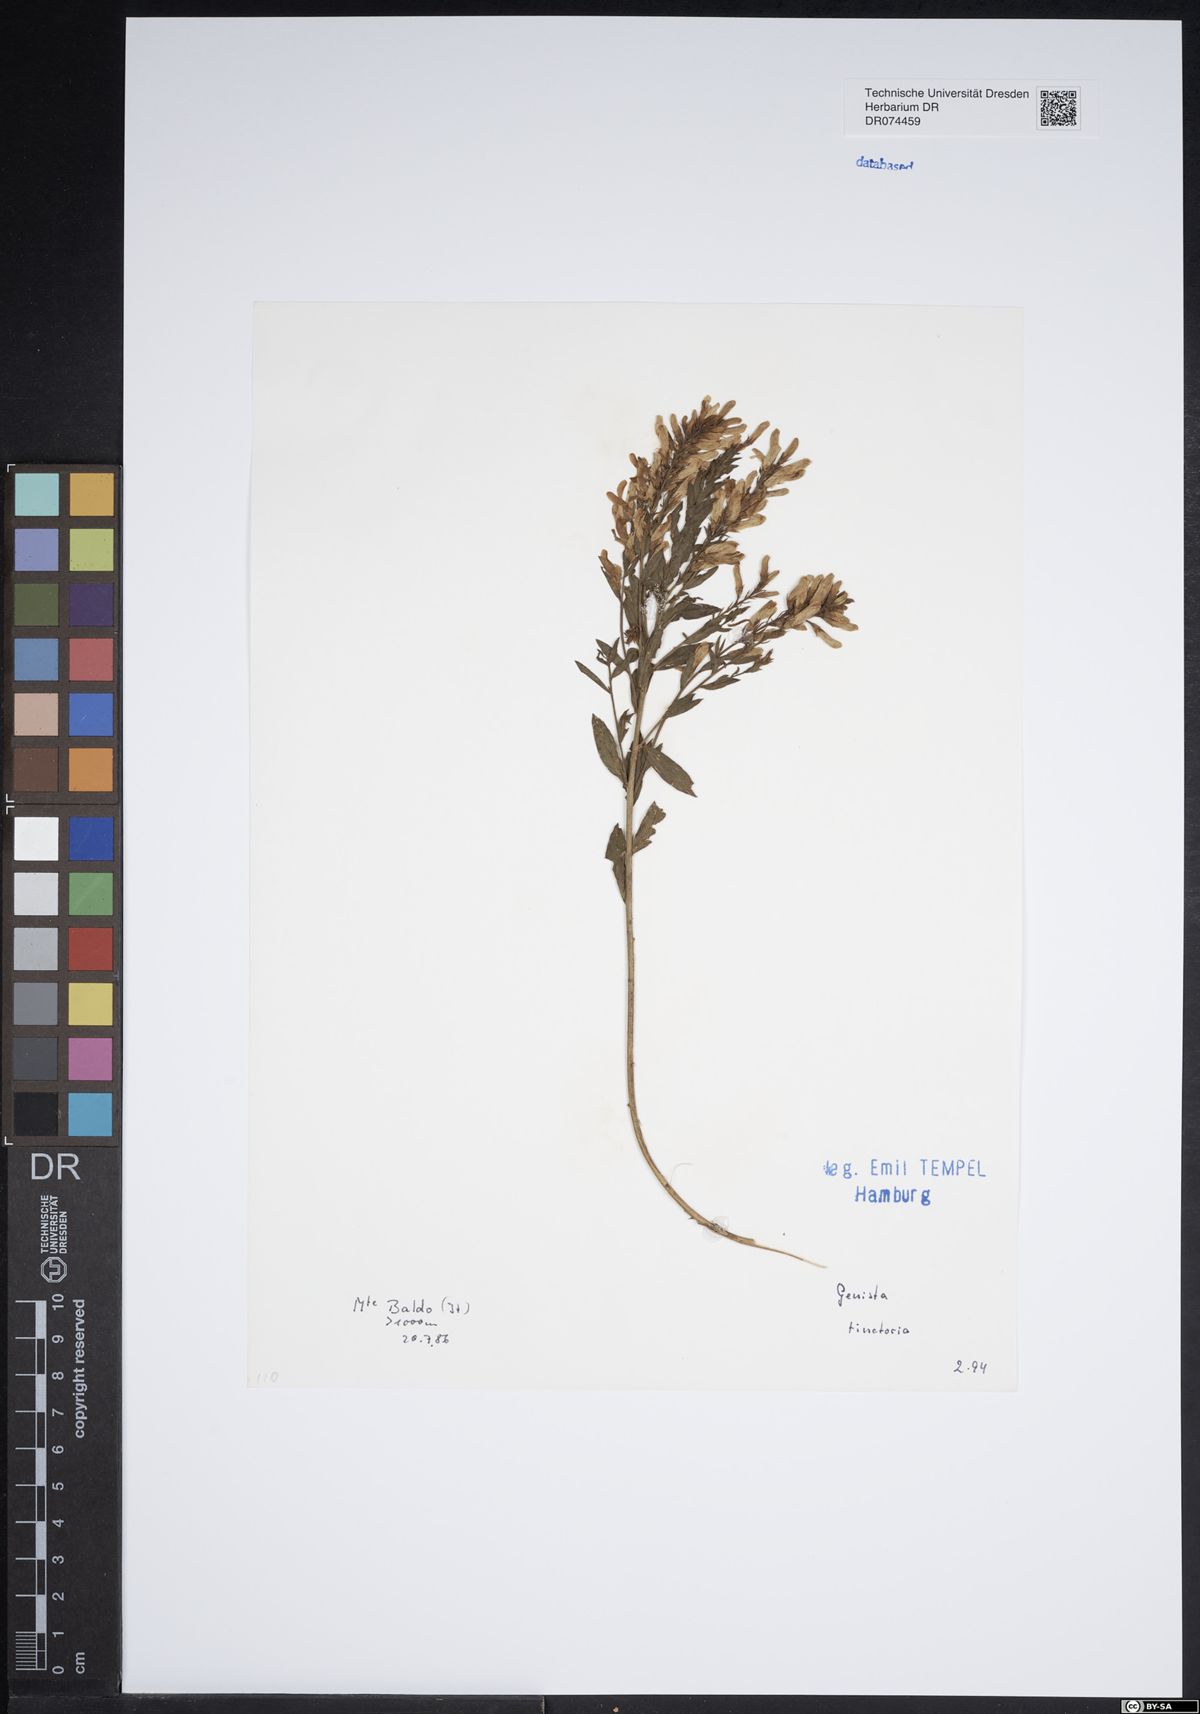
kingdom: Plantae
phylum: Tracheophyta
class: Magnoliopsida
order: Fabales
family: Fabaceae
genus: Genista
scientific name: Genista tinctoria
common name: Dyer's greenweed
